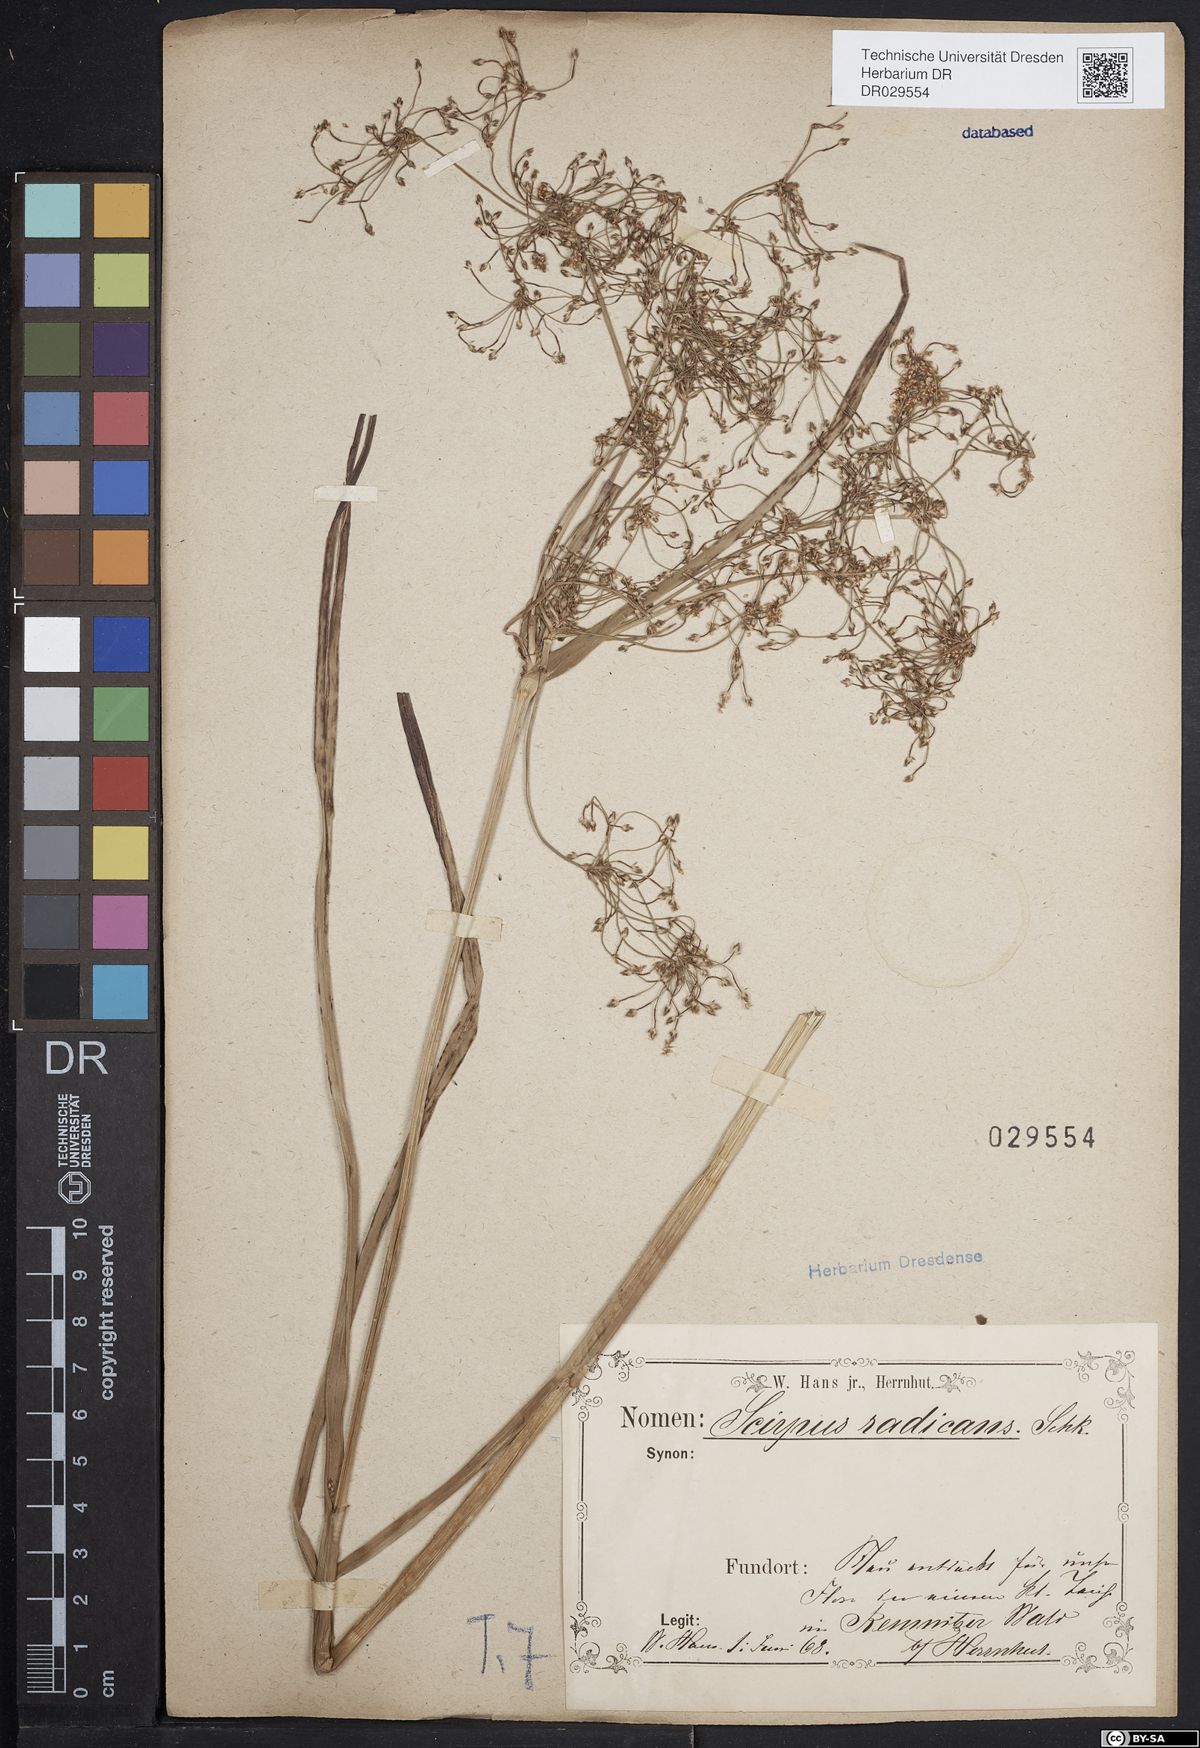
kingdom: Plantae
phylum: Tracheophyta
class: Liliopsida
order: Poales
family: Cyperaceae
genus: Scirpus
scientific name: Scirpus radicans
